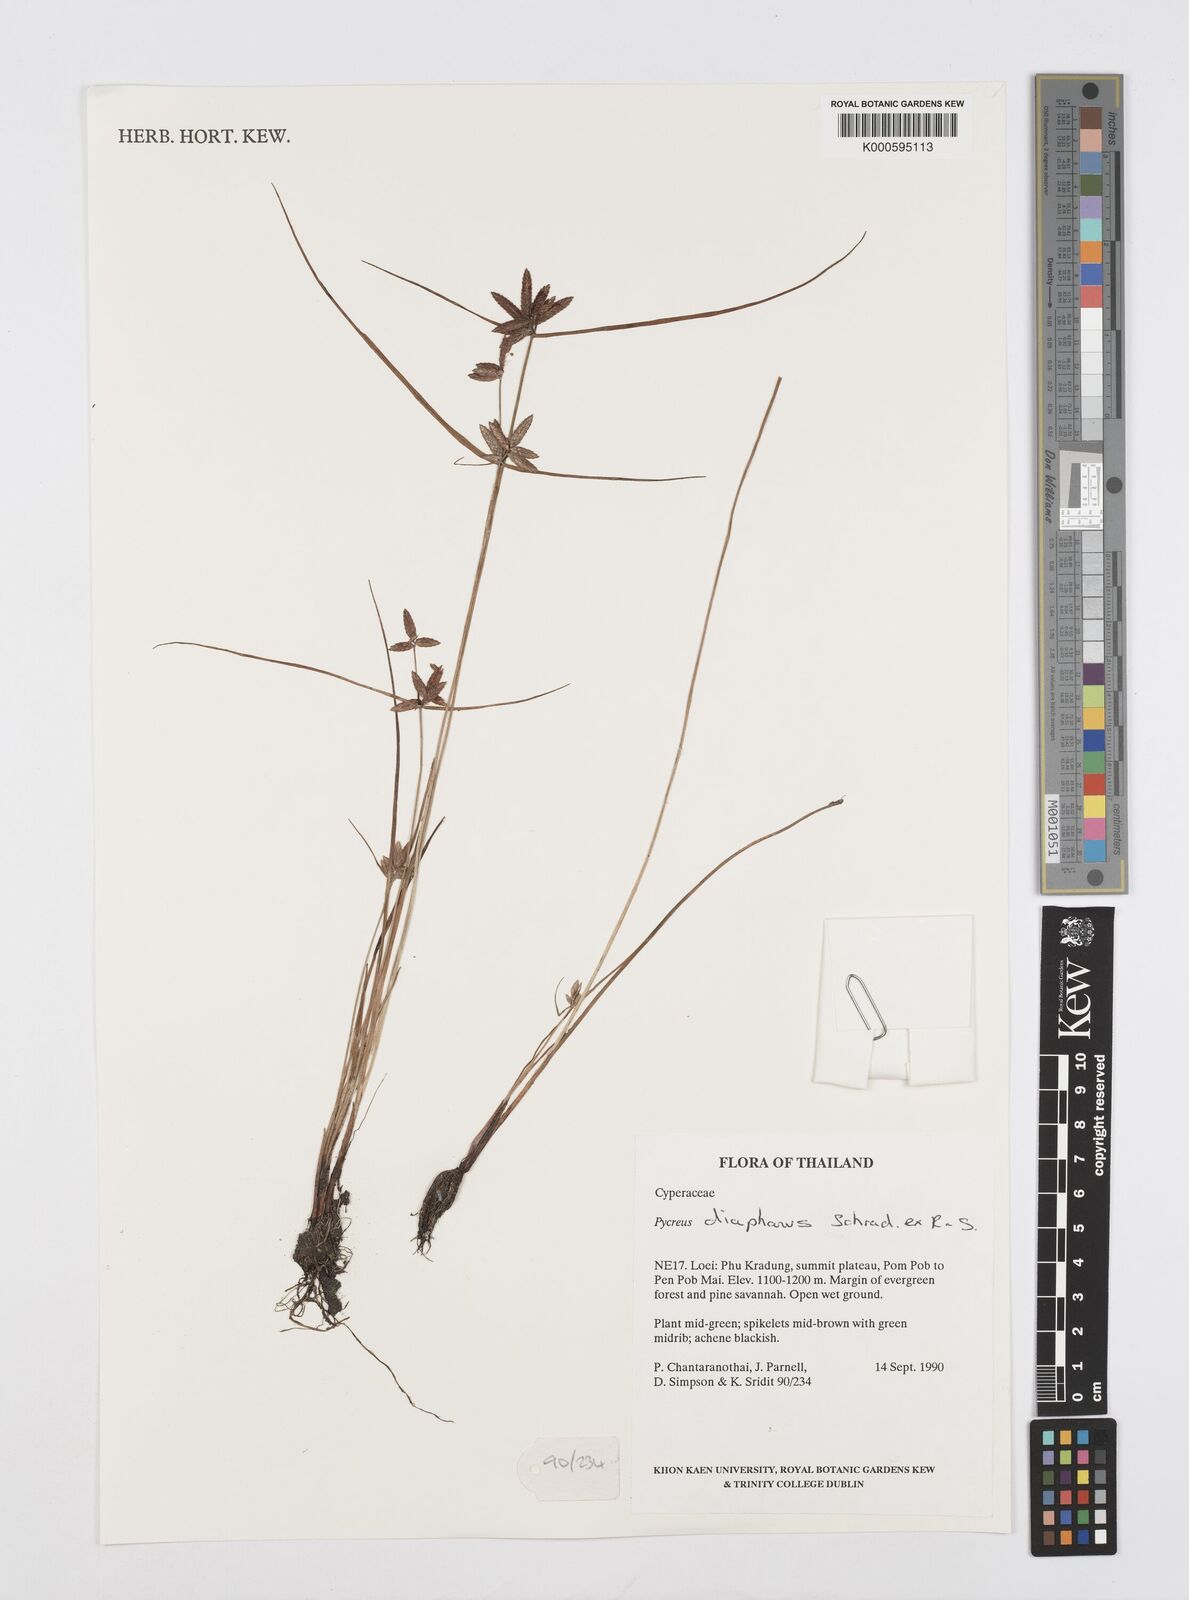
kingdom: Plantae
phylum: Tracheophyta
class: Liliopsida
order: Poales
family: Cyperaceae
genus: Cyperus
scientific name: Cyperus diaphanus
